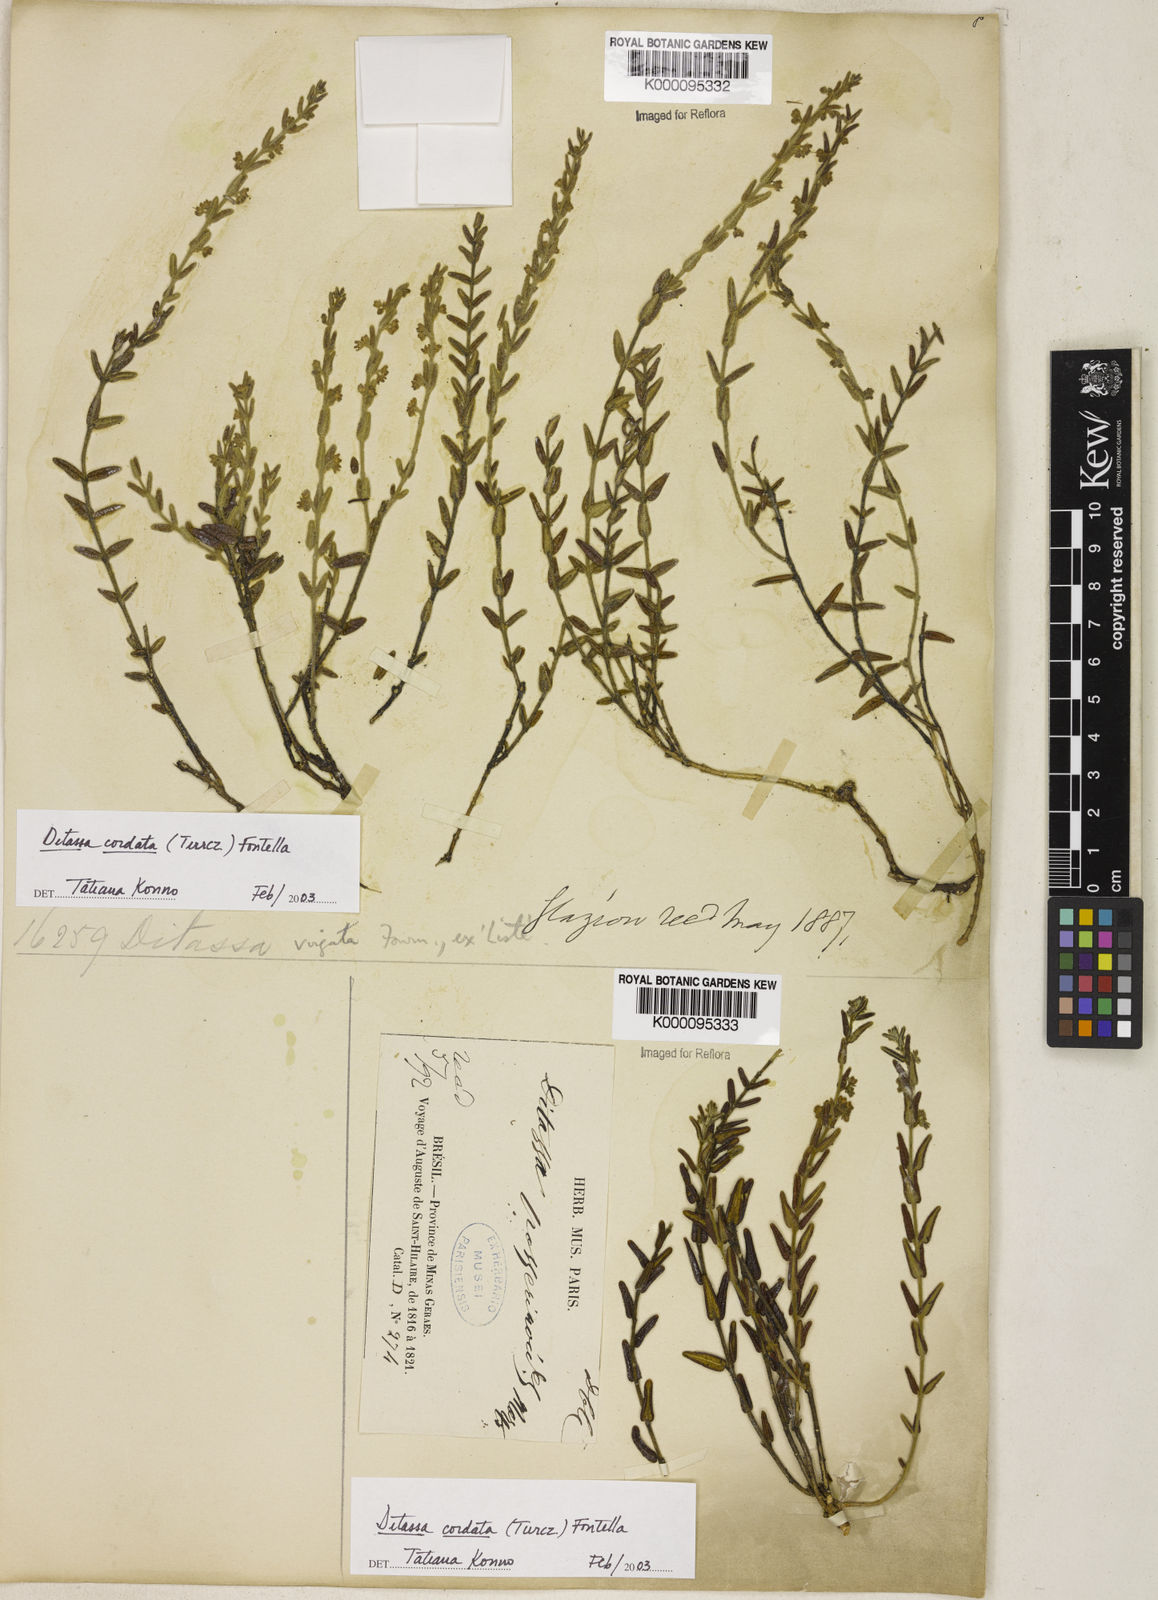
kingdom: Plantae
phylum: Tracheophyta
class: Magnoliopsida
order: Gentianales
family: Apocynaceae
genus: Minaria
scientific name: Minaria cordata
